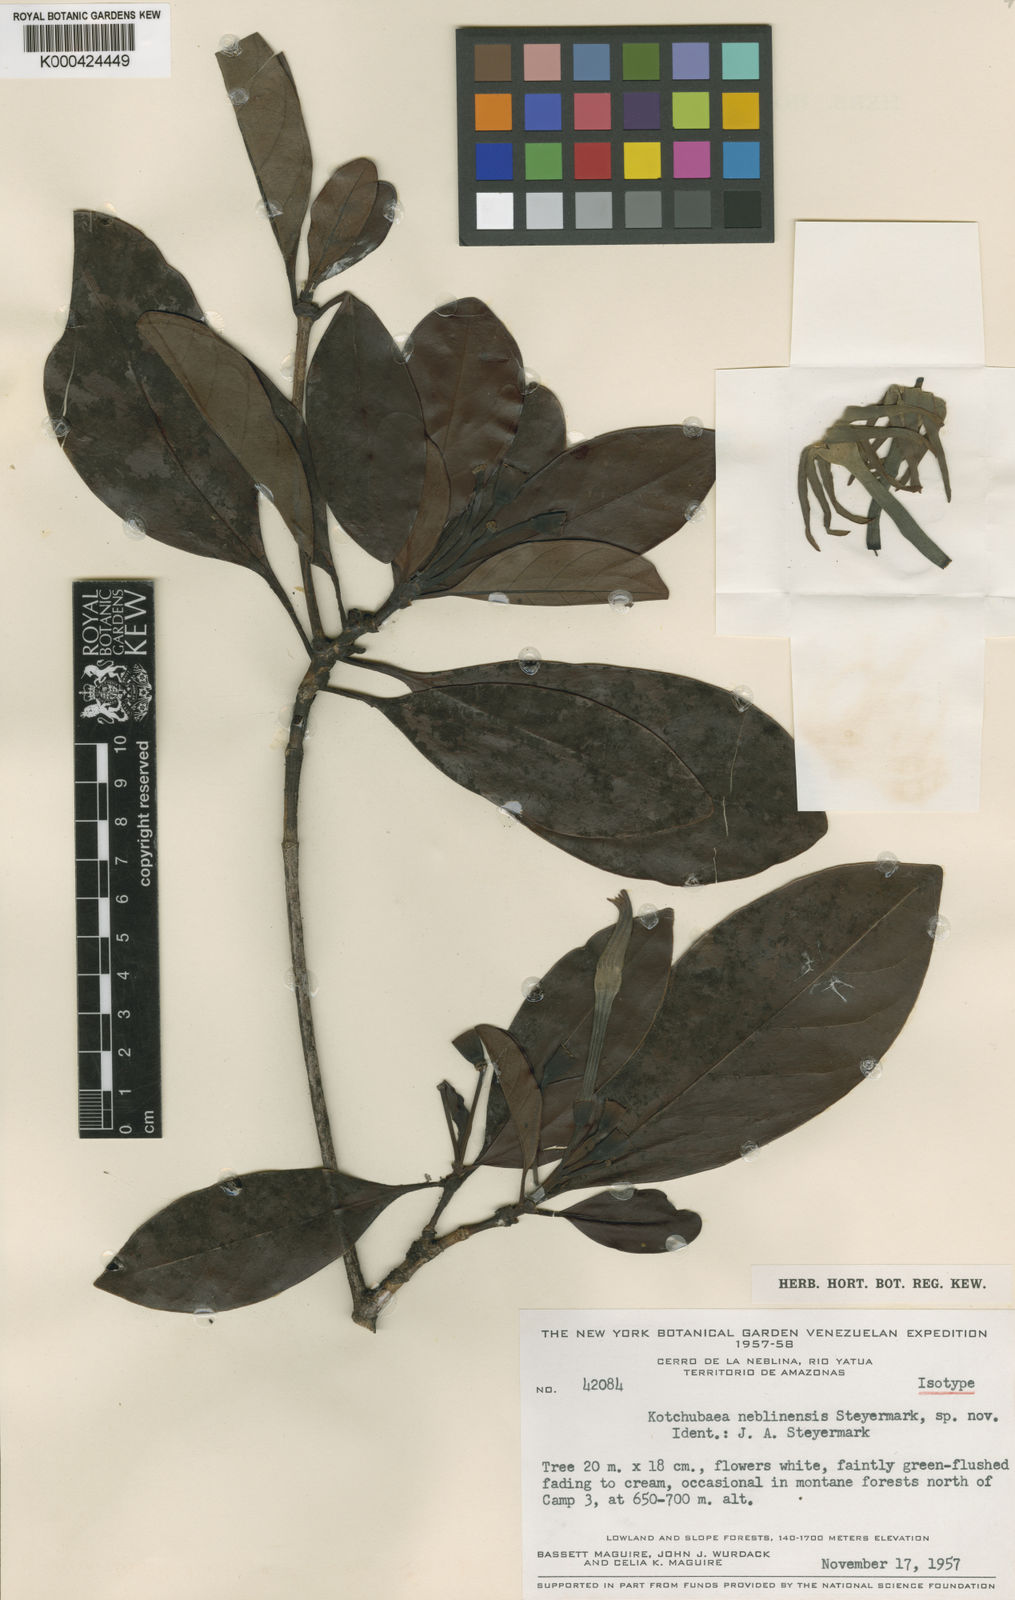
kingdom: Plantae
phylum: Tracheophyta
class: Magnoliopsida
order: Gentianales
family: Rubiaceae
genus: Kutchubaea
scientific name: Kutchubaea neblinensis
